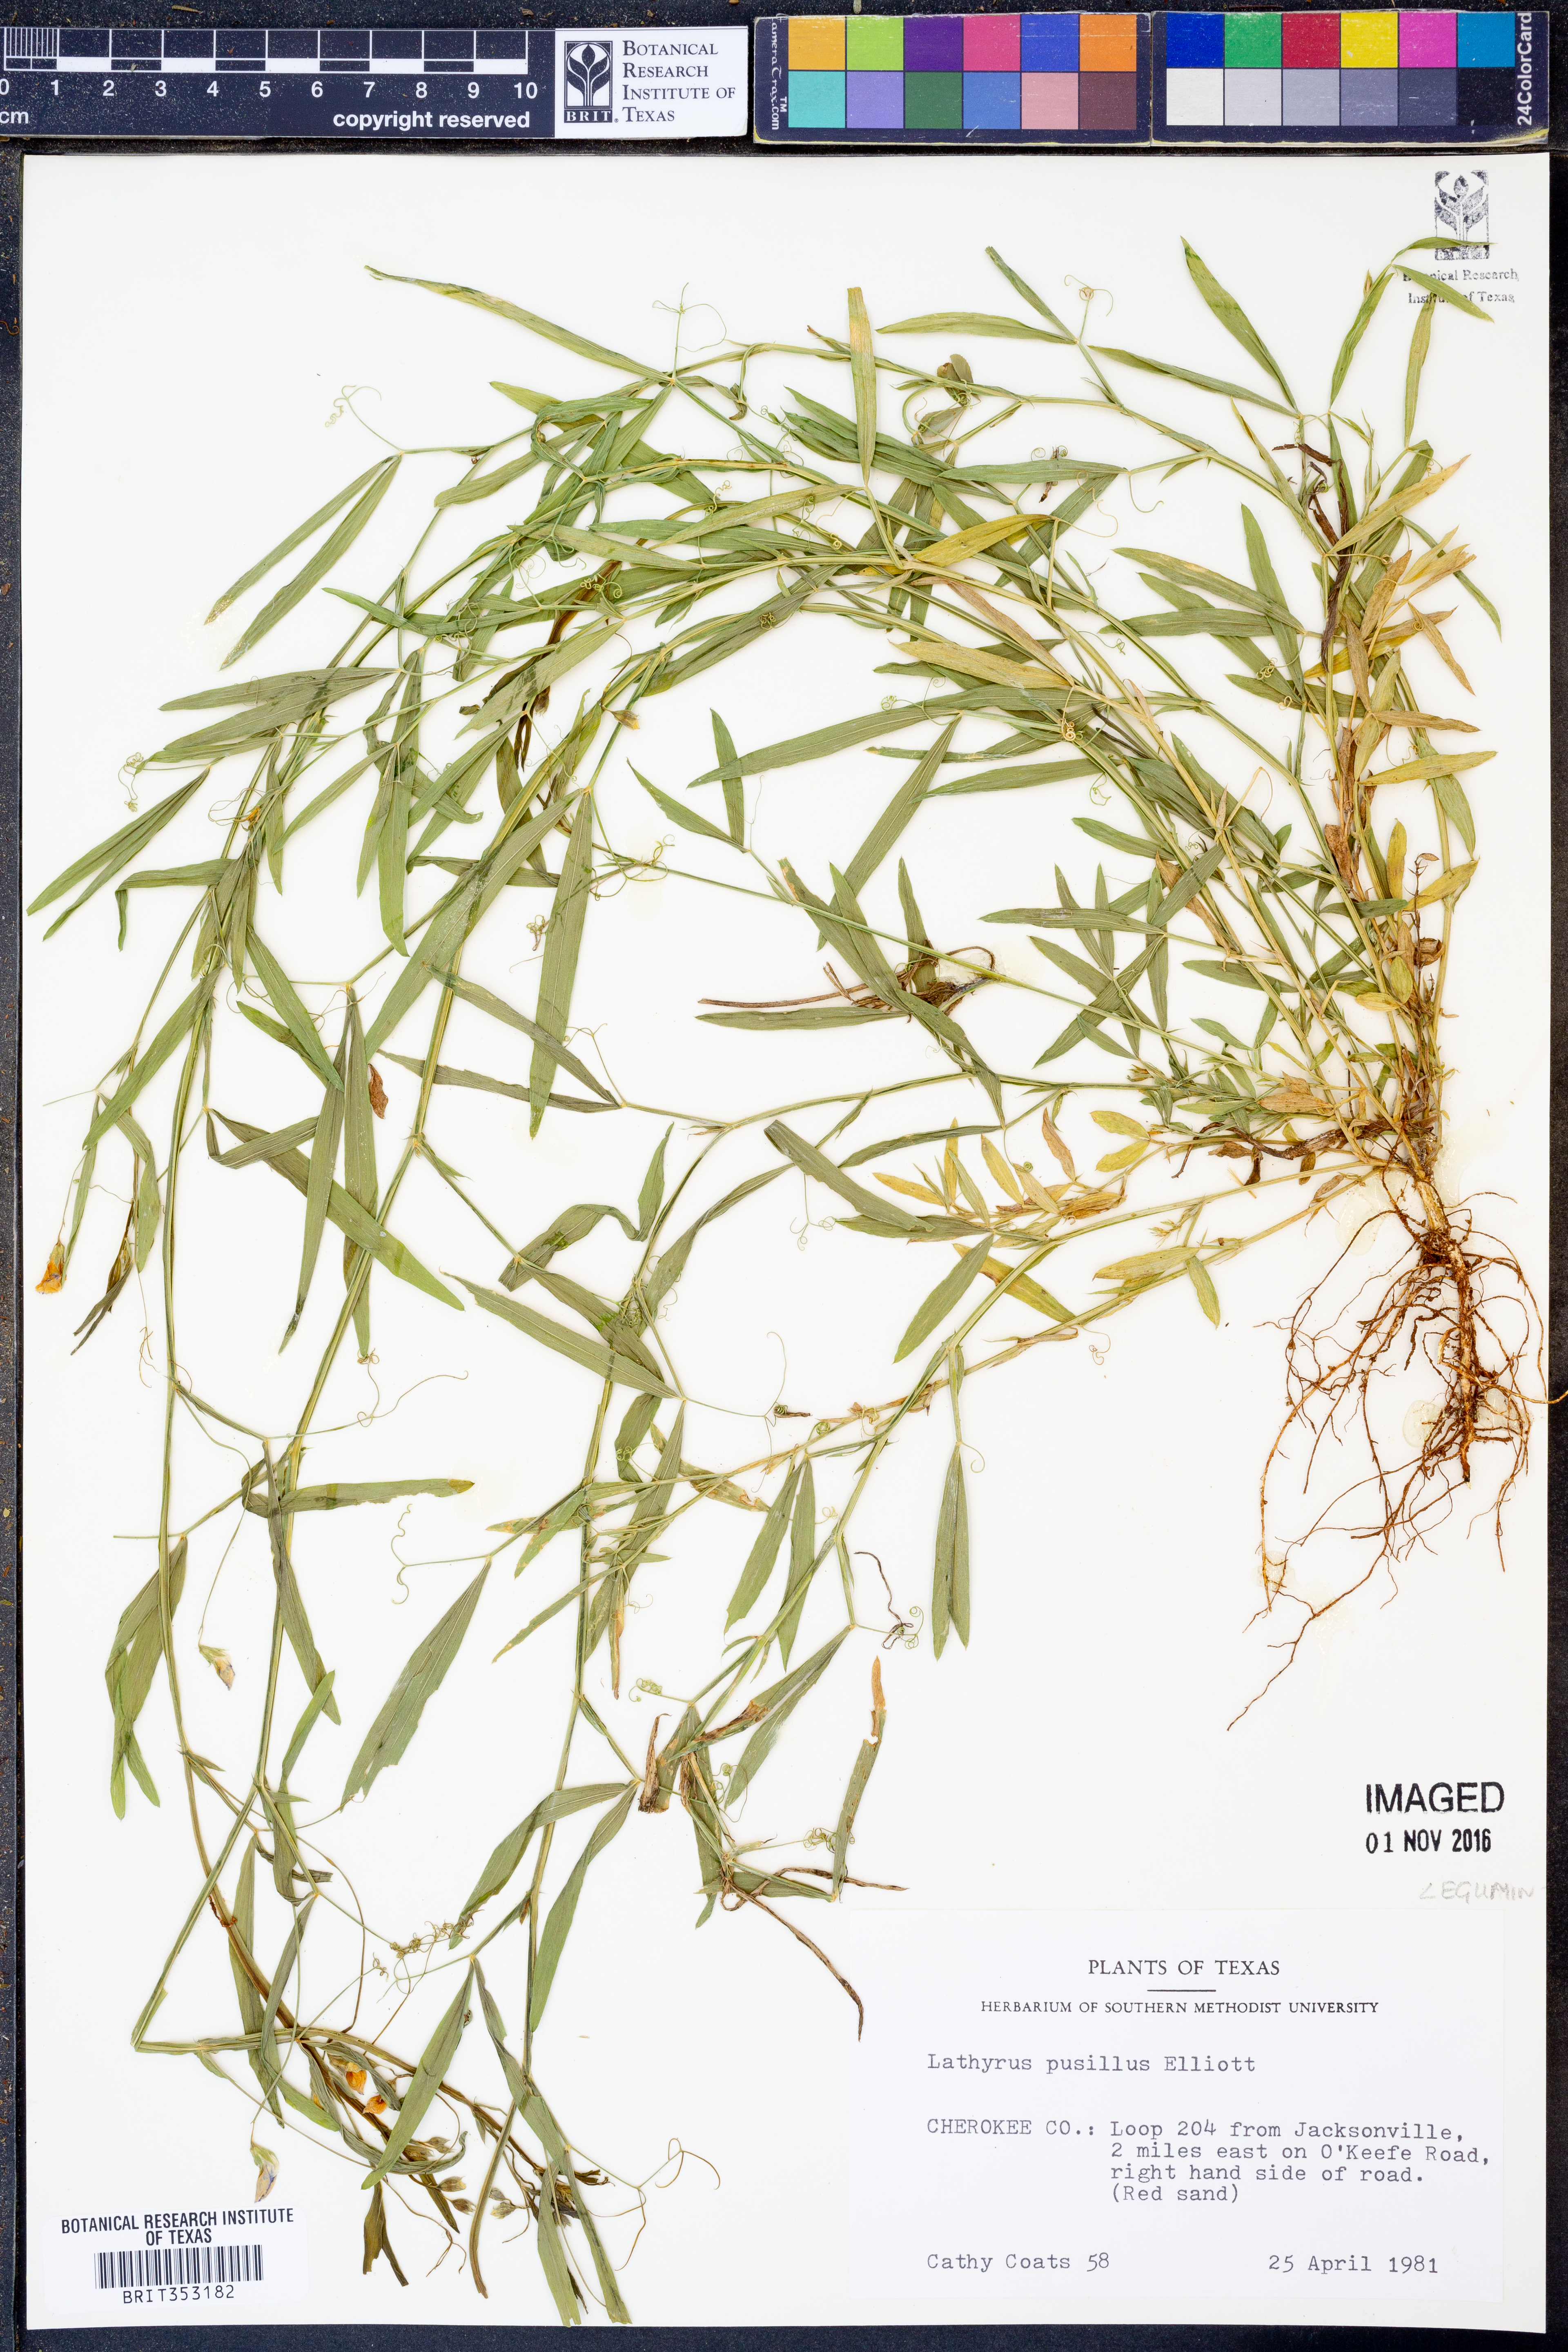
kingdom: Plantae
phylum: Tracheophyta
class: Magnoliopsida
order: Fabales
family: Fabaceae
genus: Lathyrus
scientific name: Lathyrus pusillus
